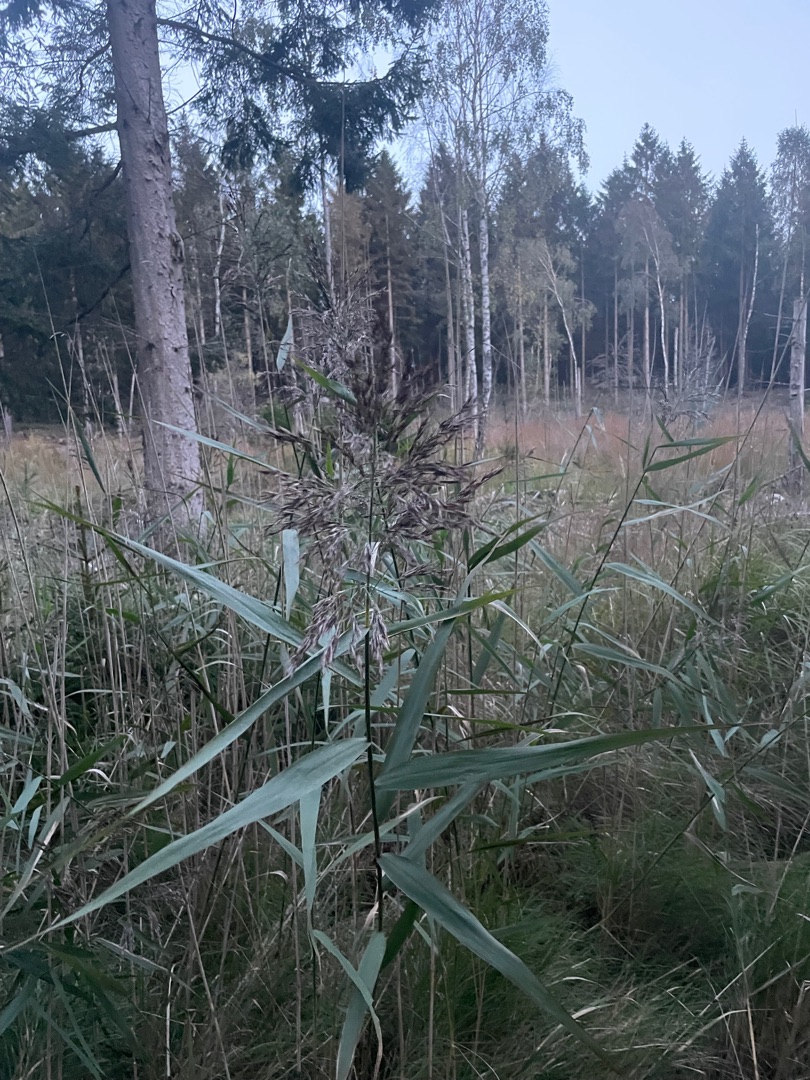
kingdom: Plantae
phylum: Tracheophyta
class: Liliopsida
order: Poales
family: Poaceae
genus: Phragmites
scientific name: Phragmites australis
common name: Tagrør
